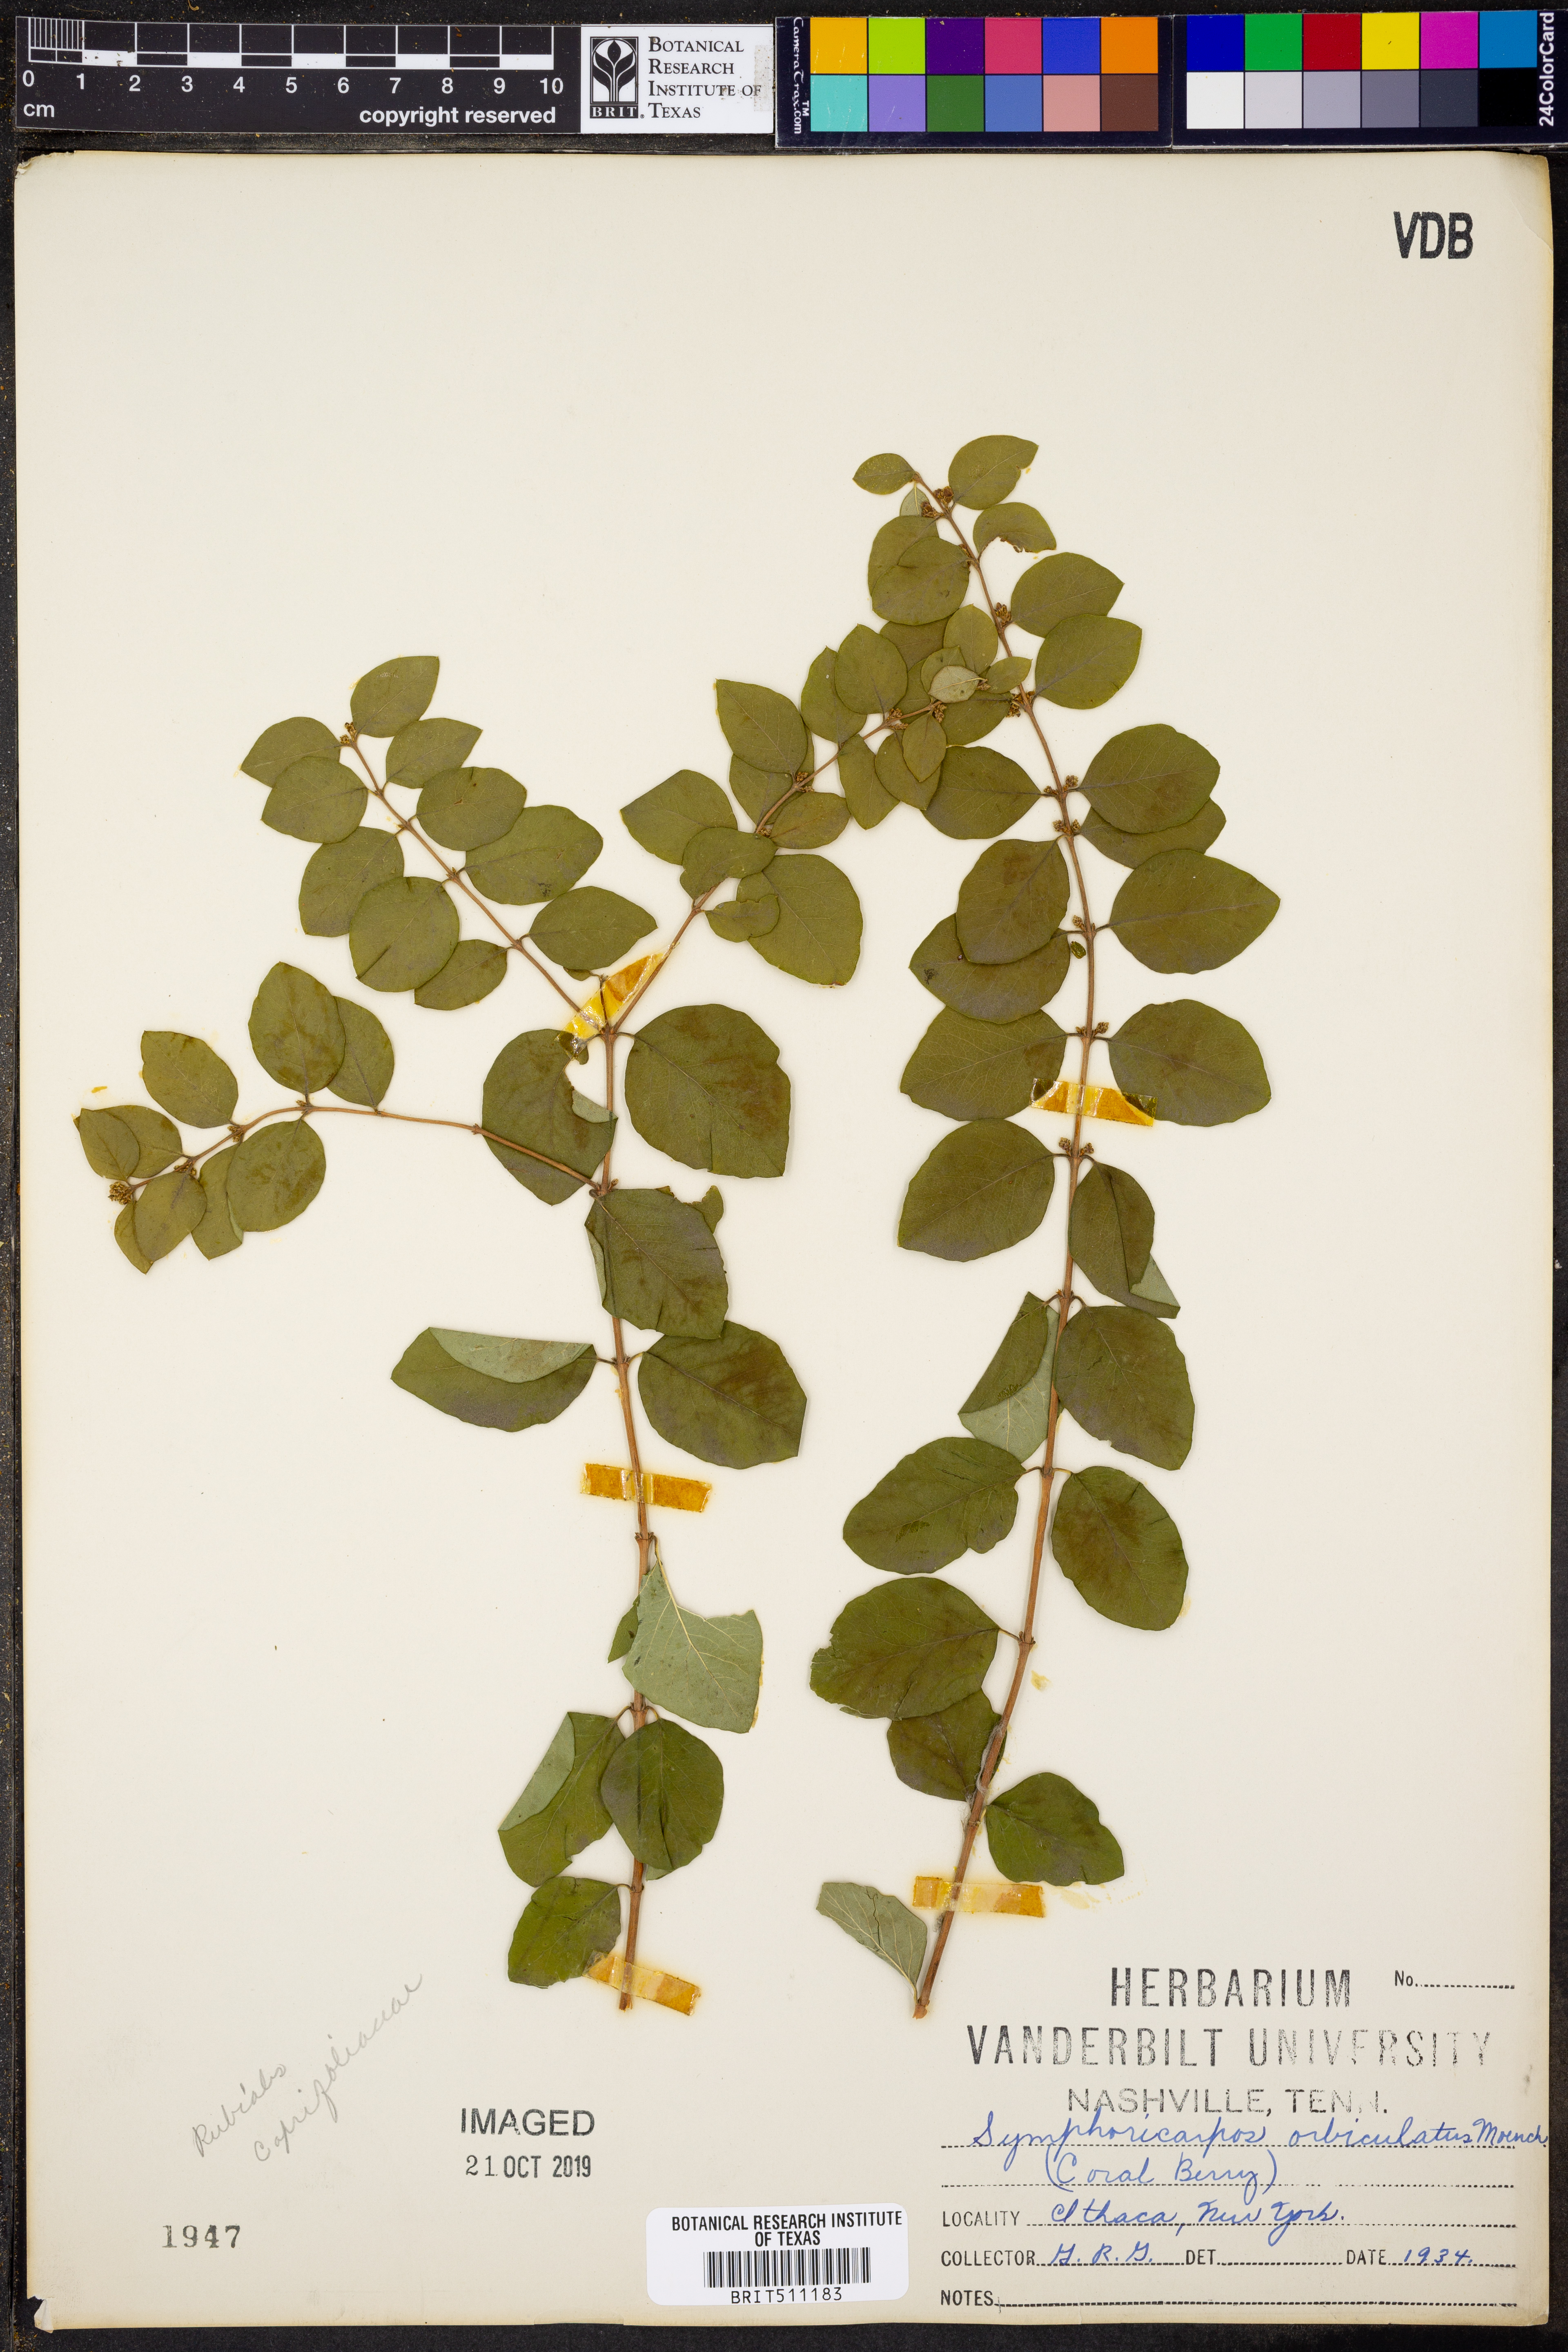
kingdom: Plantae
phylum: Tracheophyta
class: Magnoliopsida
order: Dipsacales
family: Caprifoliaceae
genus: Symphoricarpos
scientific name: Symphoricarpos orbiculatus
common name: Coralberry
